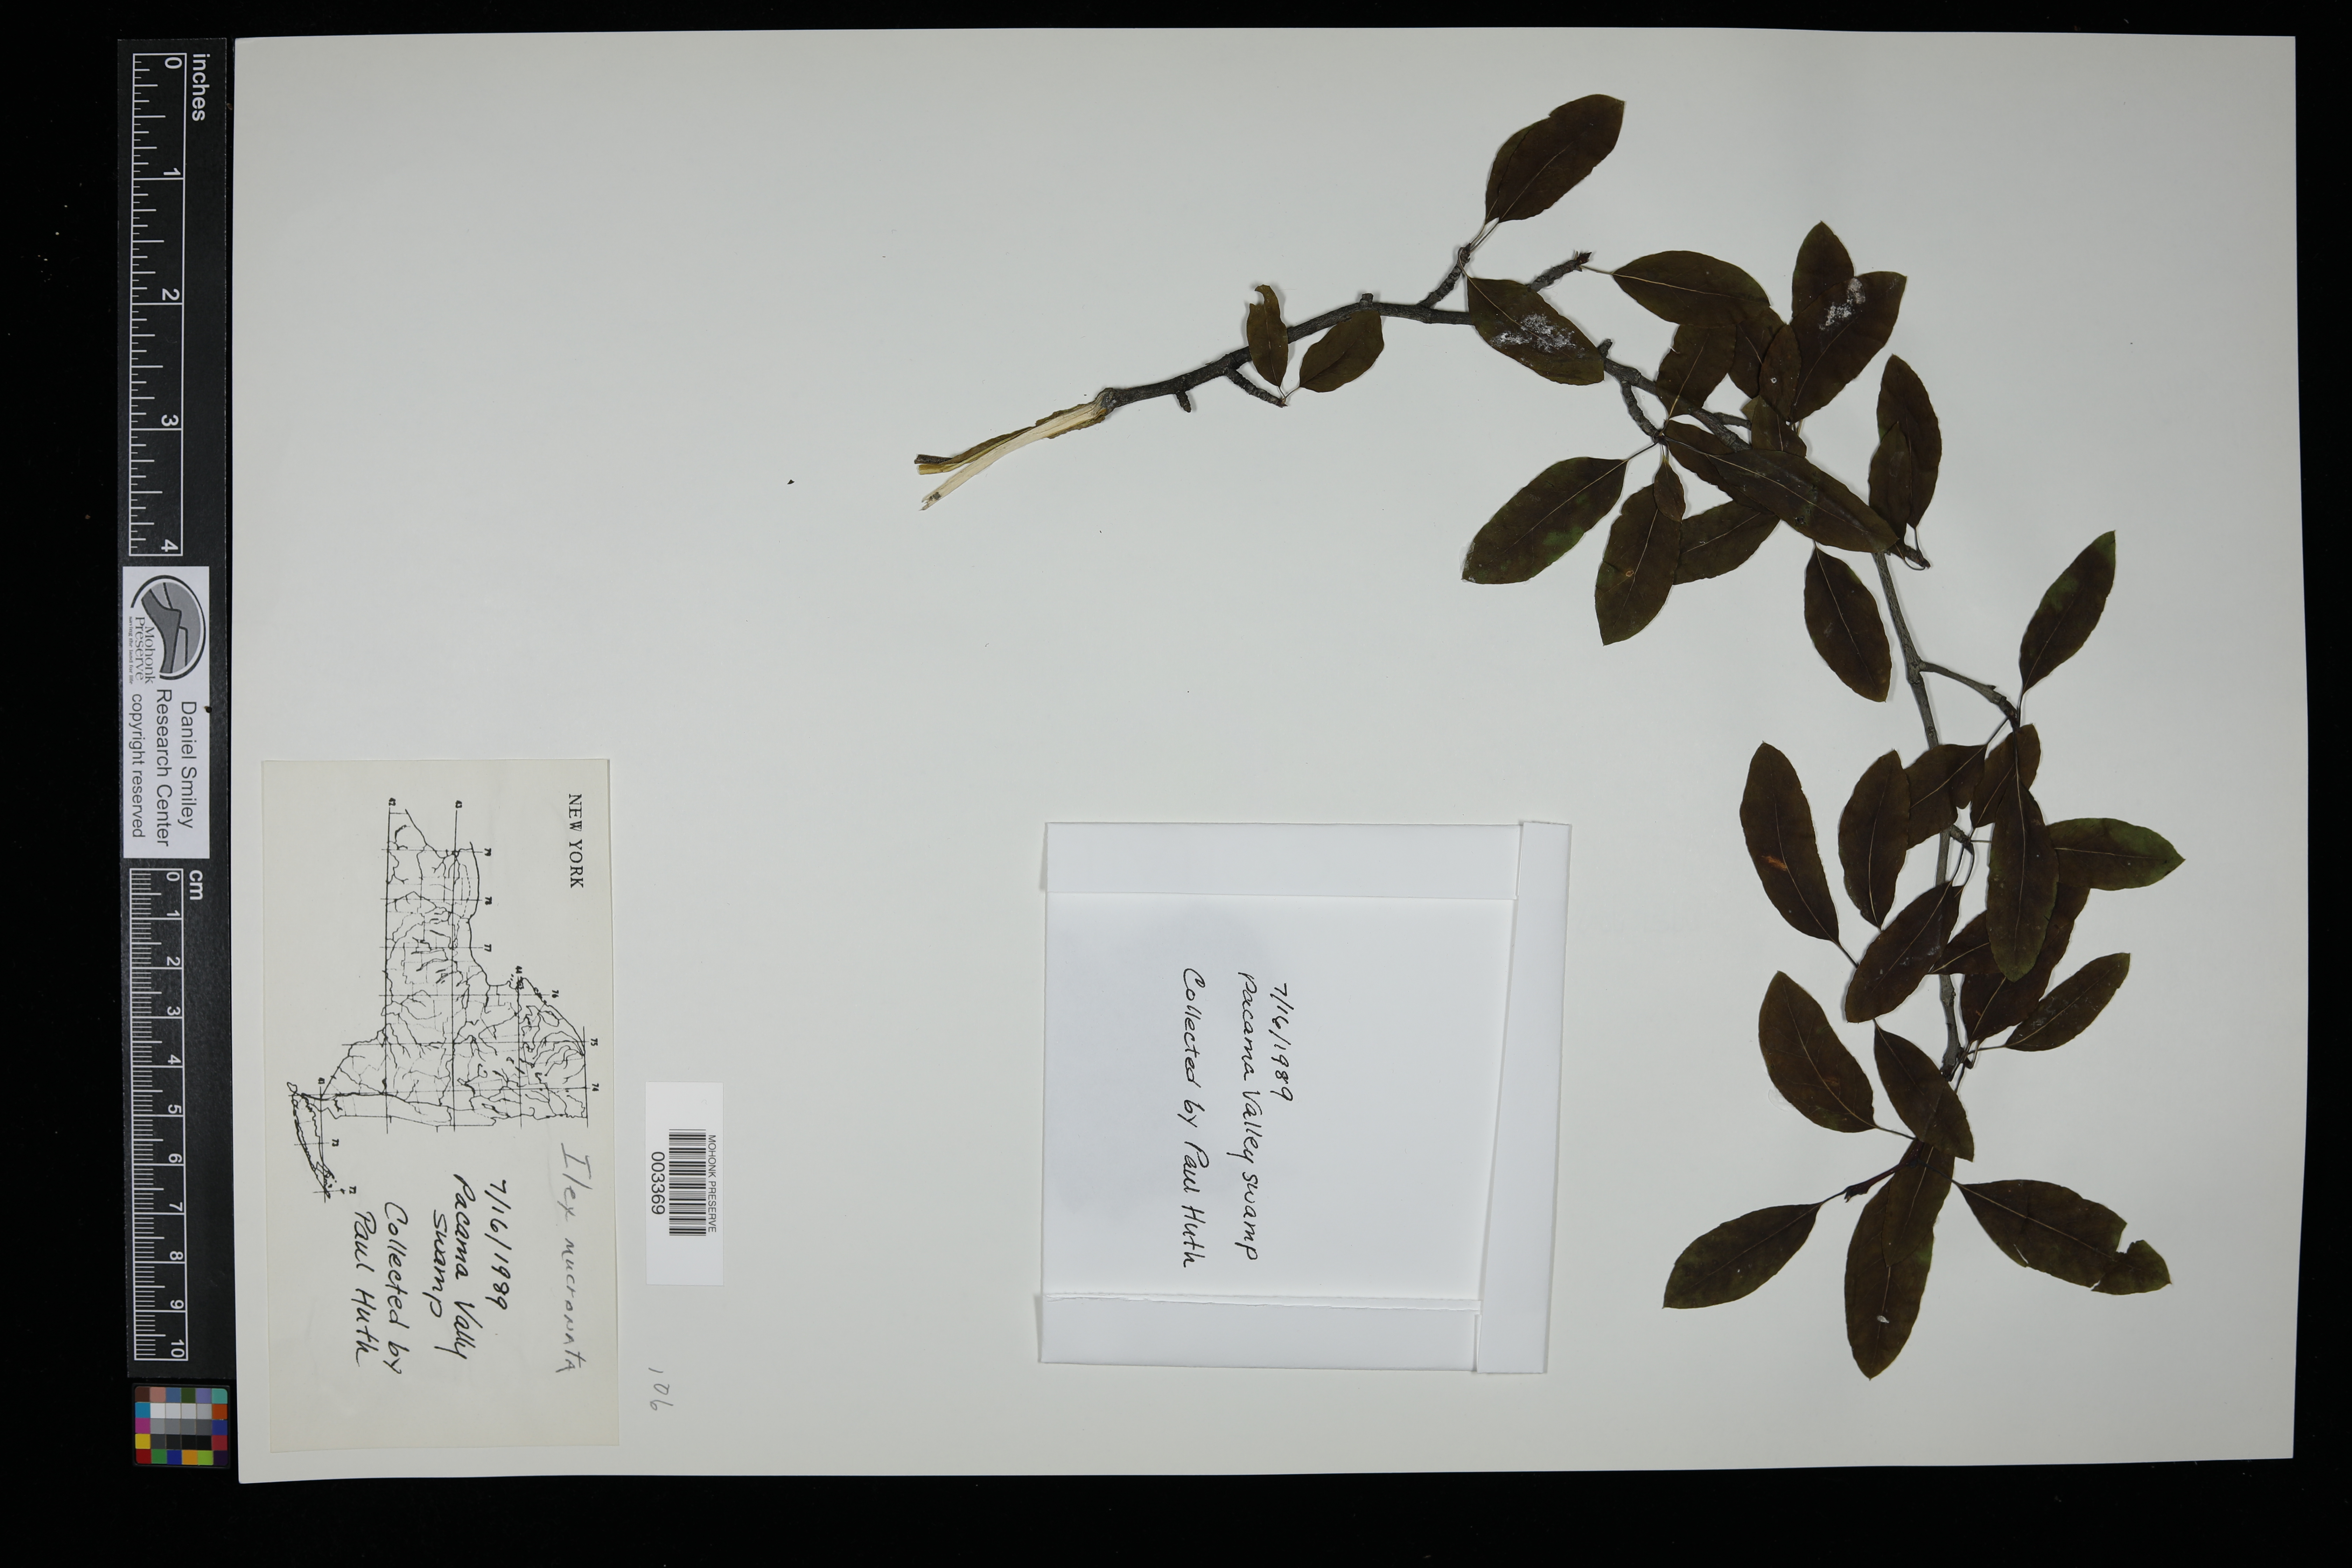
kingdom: Plantae
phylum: Tracheophyta
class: Magnoliopsida
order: Aquifoliales
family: Aquifoliaceae
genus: Ilex
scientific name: Ilex mucronata
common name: Catberry
